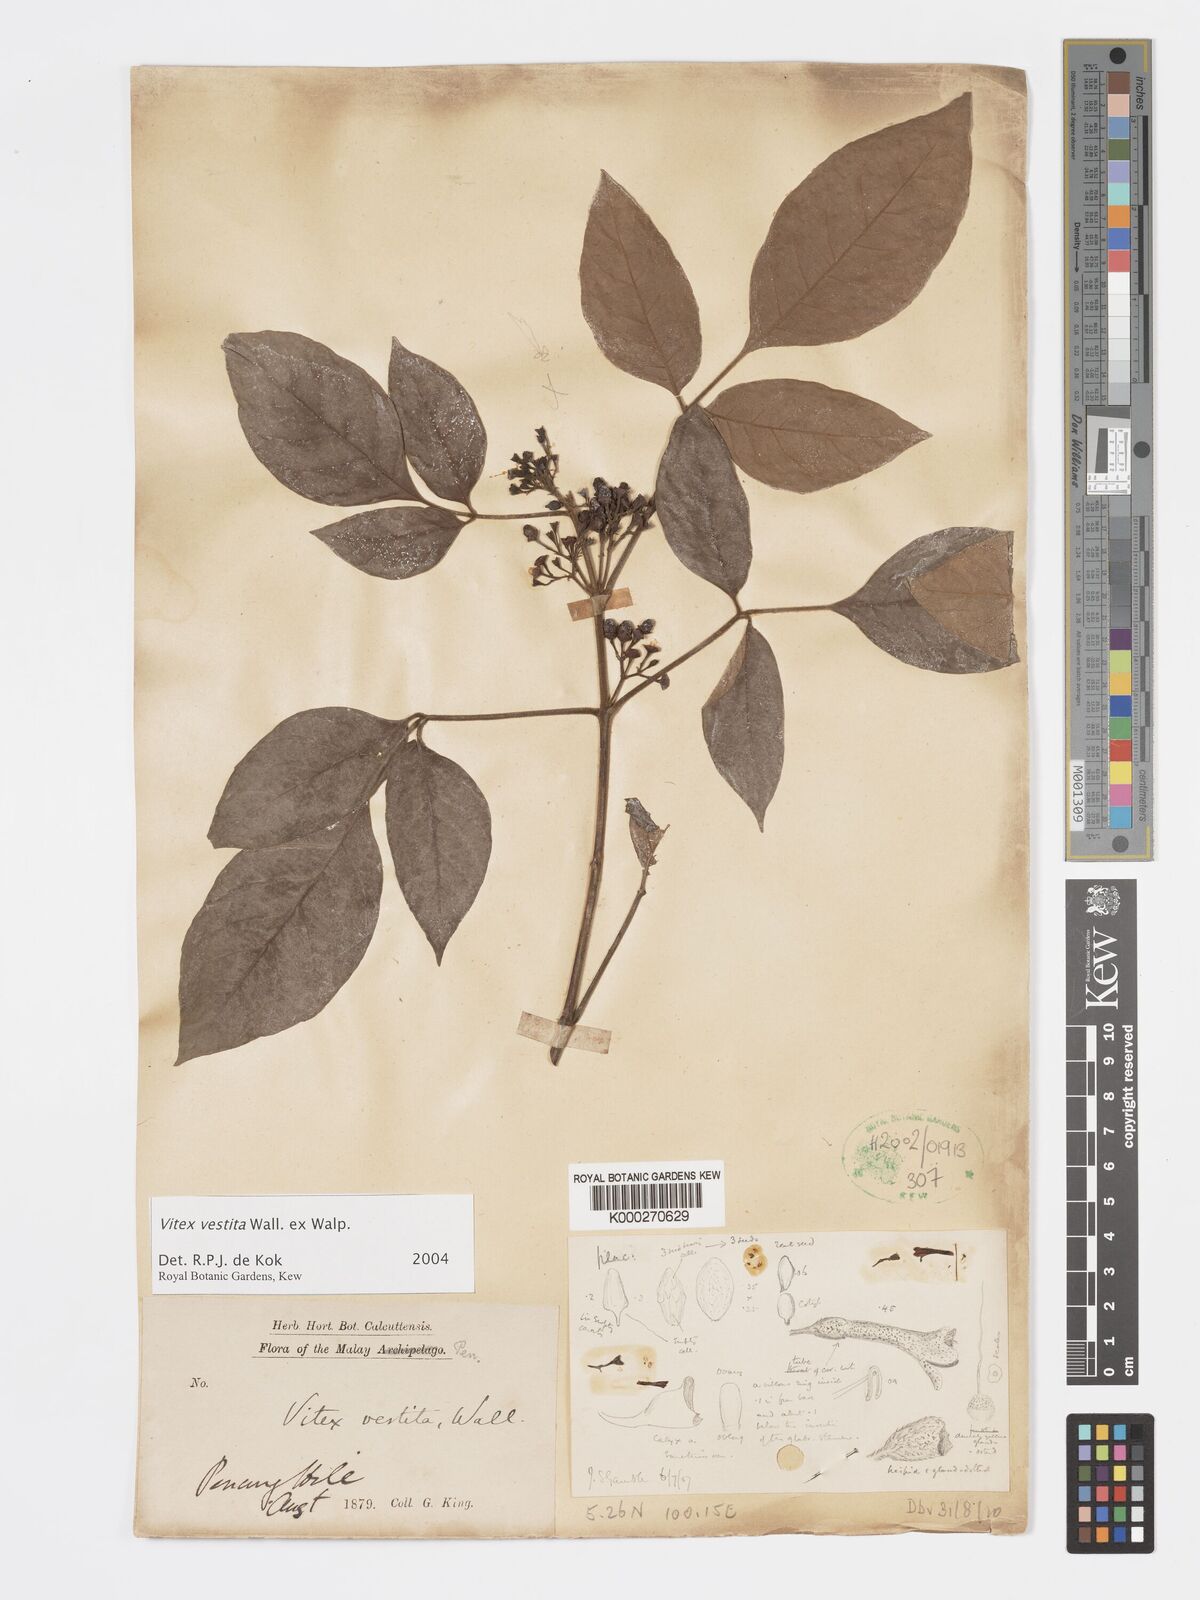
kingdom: Plantae
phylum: Tracheophyta
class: Magnoliopsida
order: Lamiales
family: Lamiaceae
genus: Vitex
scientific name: Vitex vestita
